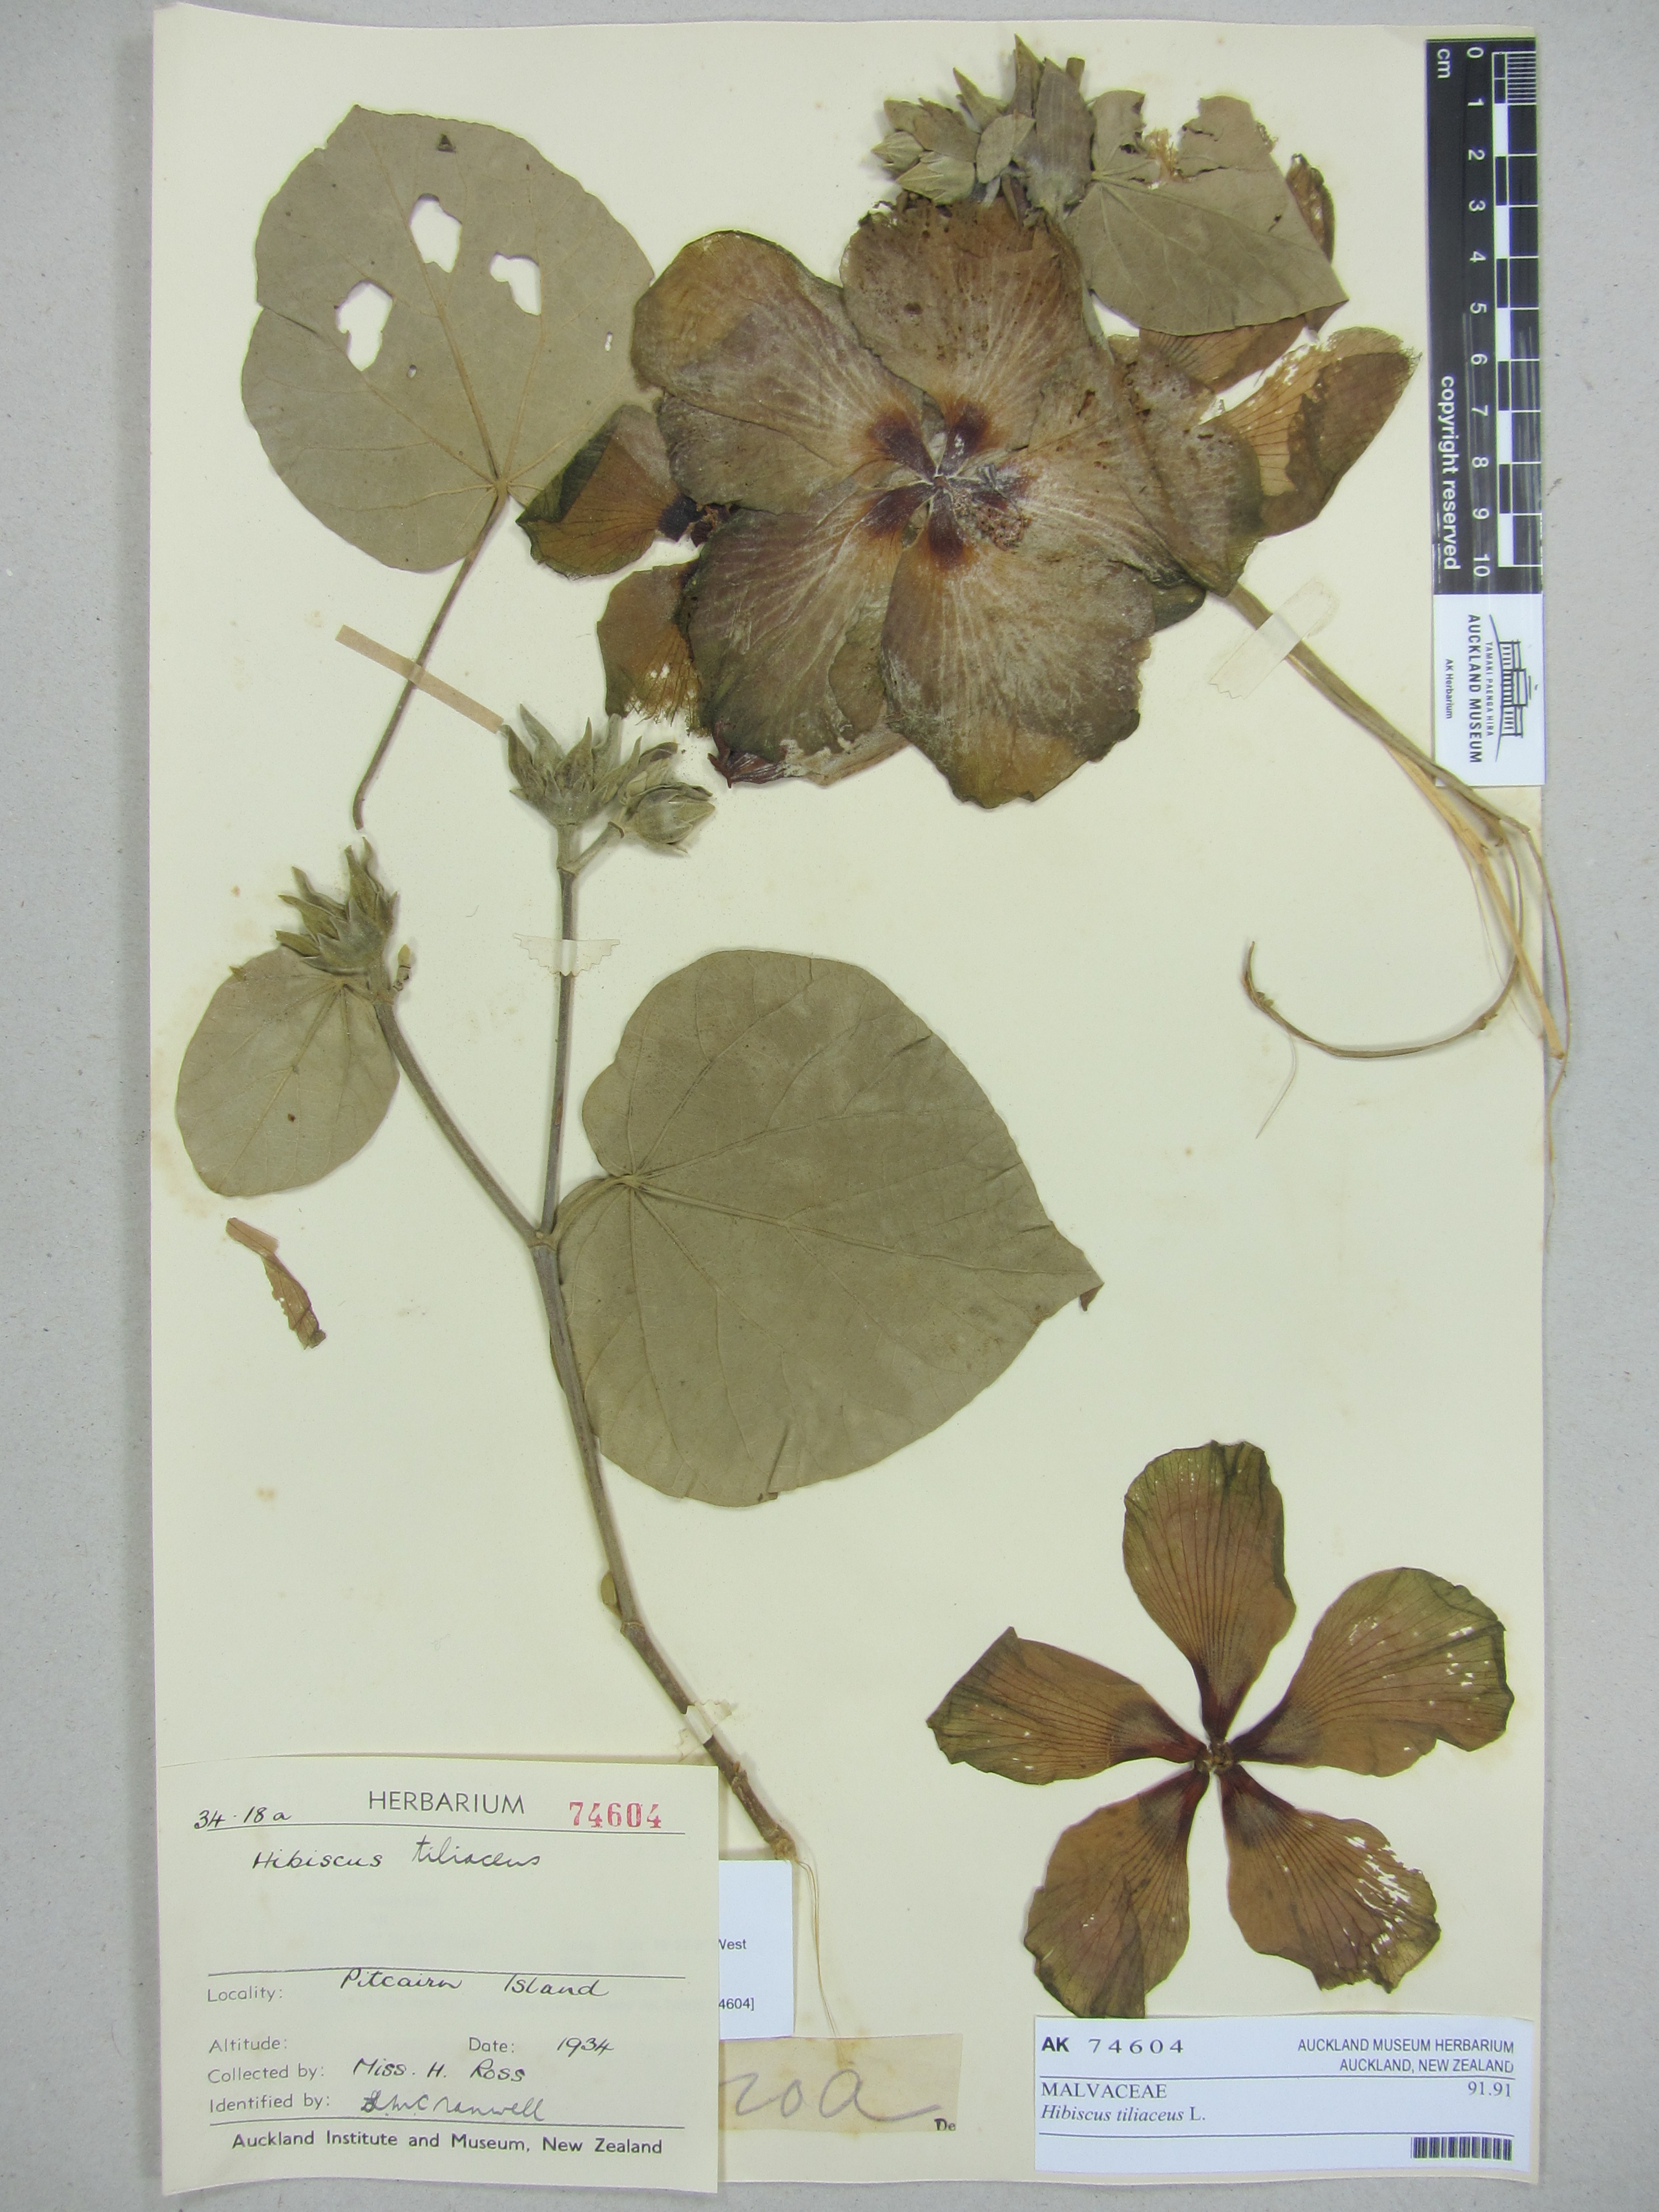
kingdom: Plantae
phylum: Tracheophyta
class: Magnoliopsida
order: Malvales
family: Malvaceae
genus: Talipariti
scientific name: Talipariti tiliaceum
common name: Sea hibiscus
